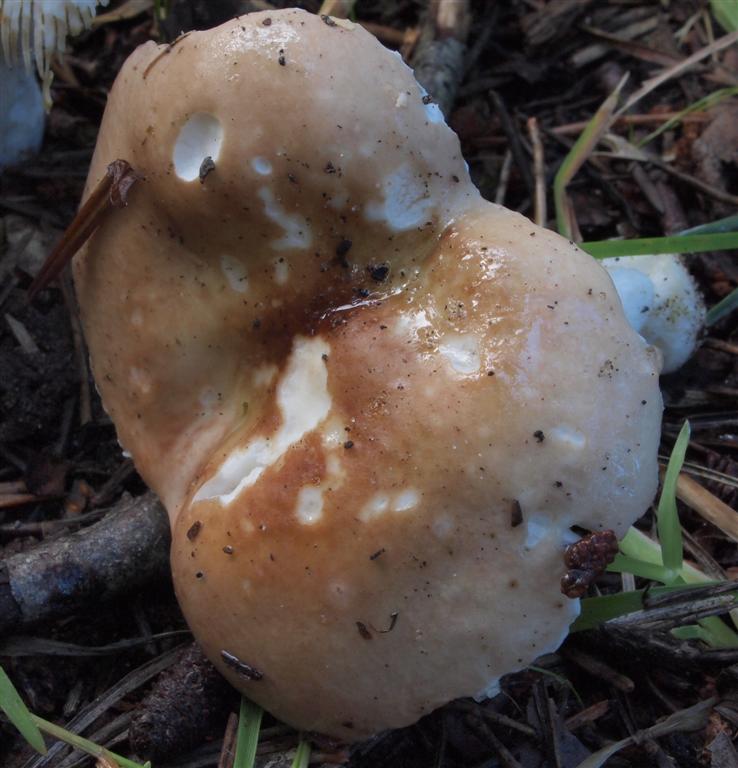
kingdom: Fungi
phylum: Basidiomycota
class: Agaricomycetes
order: Russulales
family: Russulaceae
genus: Russula
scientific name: Russula cessans
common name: fyrre-skørhat
